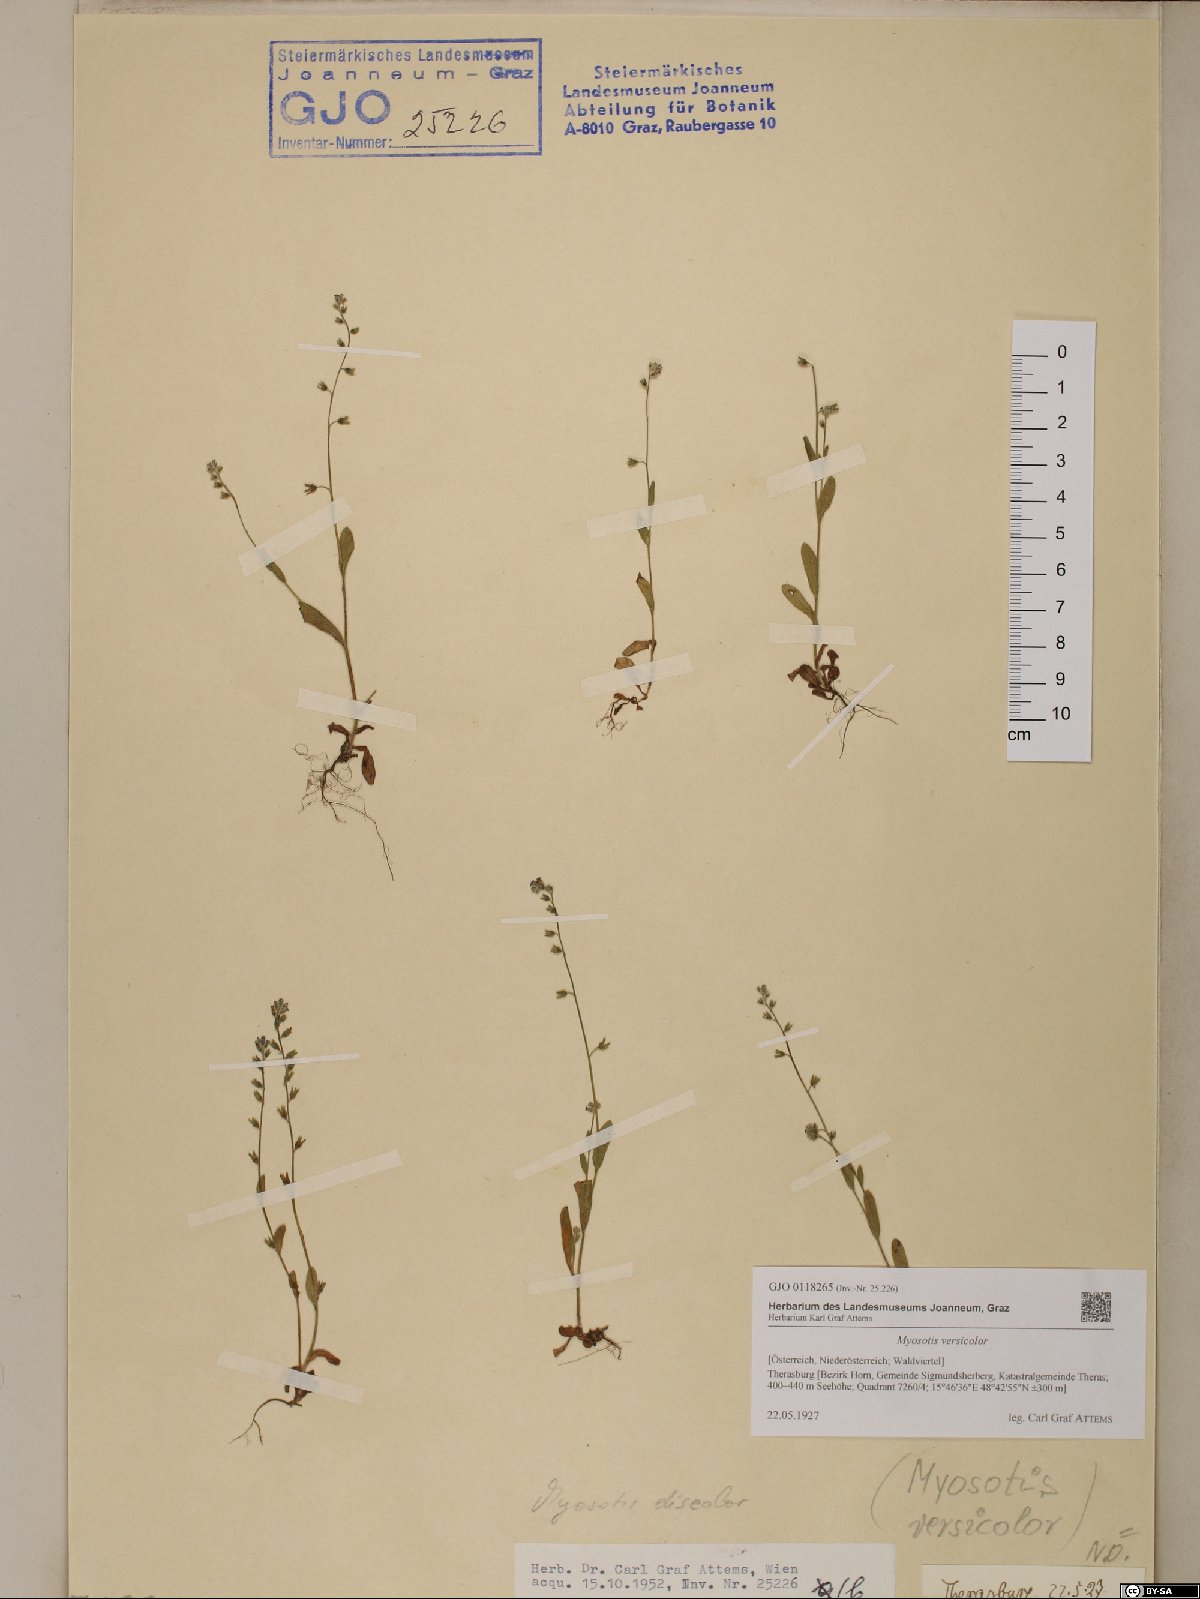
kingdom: Plantae
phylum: Tracheophyta
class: Magnoliopsida
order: Boraginales
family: Boraginaceae
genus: Myosotis
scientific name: Myosotis discolor
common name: Changing forget-me-not
